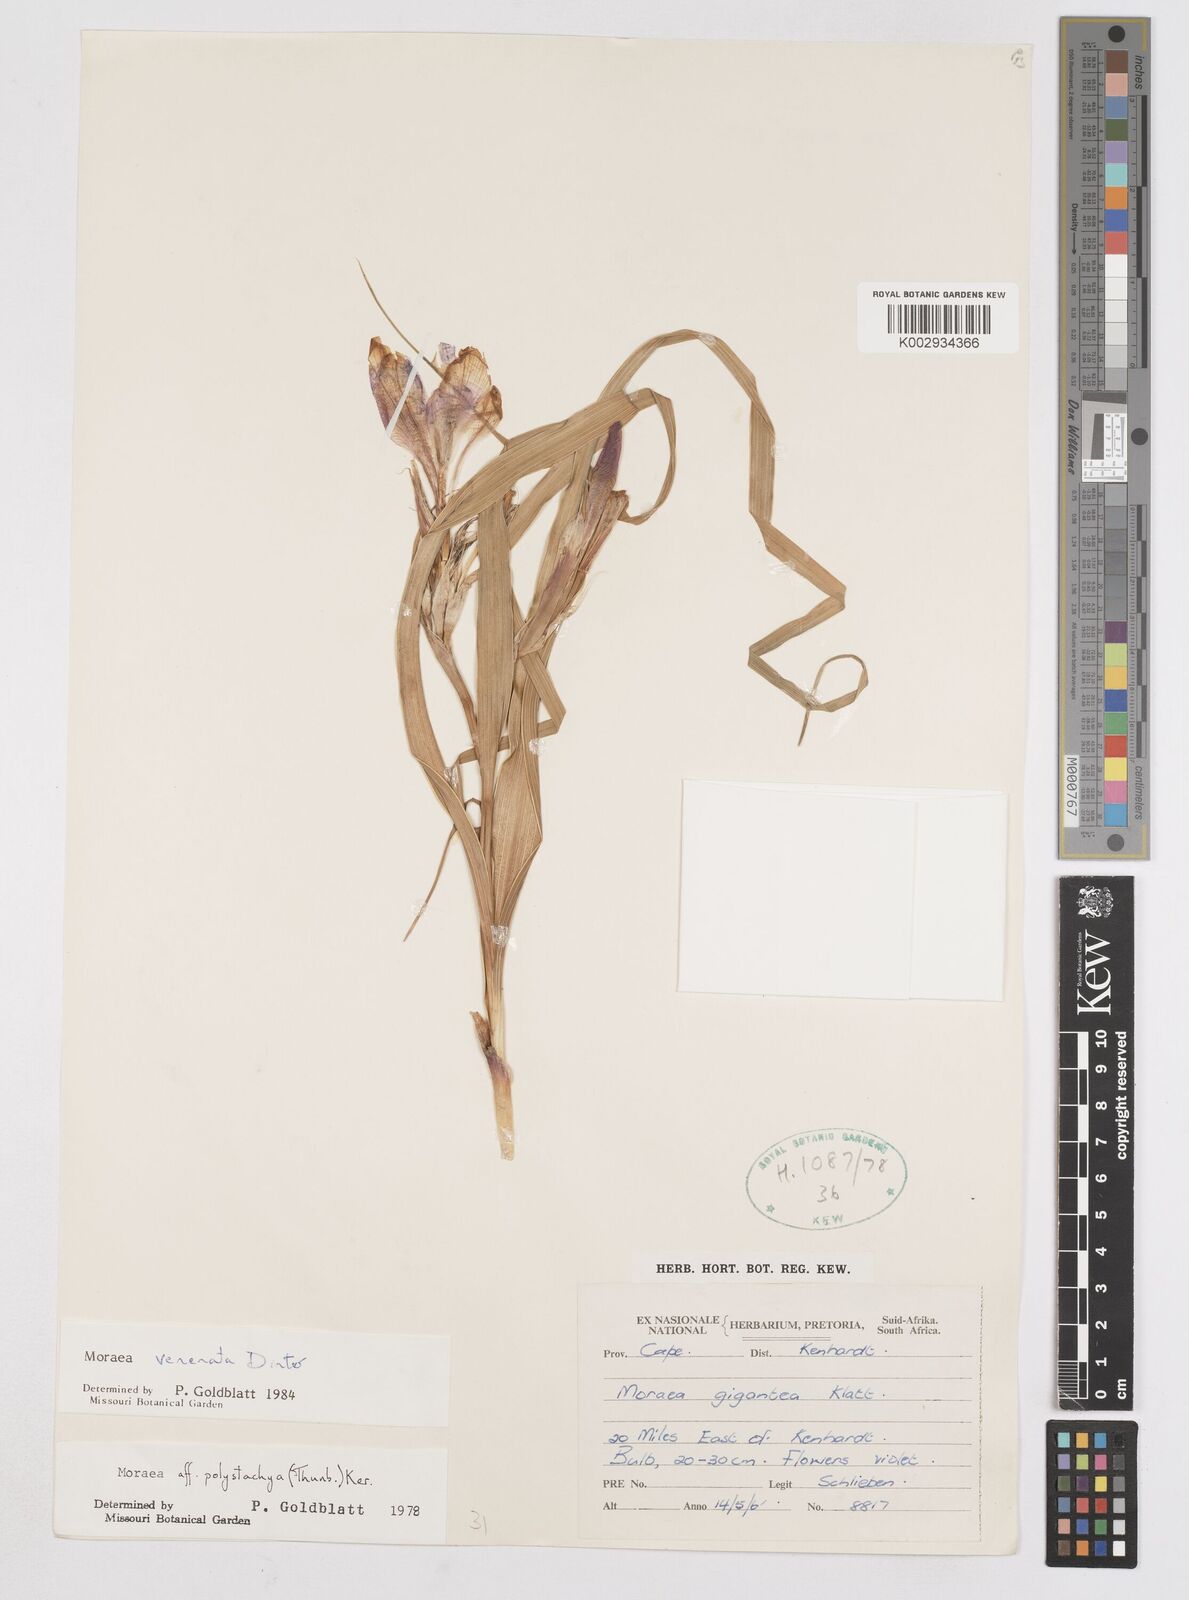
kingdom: Plantae
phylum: Tracheophyta
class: Liliopsida
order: Asparagales
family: Iridaceae
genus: Moraea
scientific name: Moraea venenata
